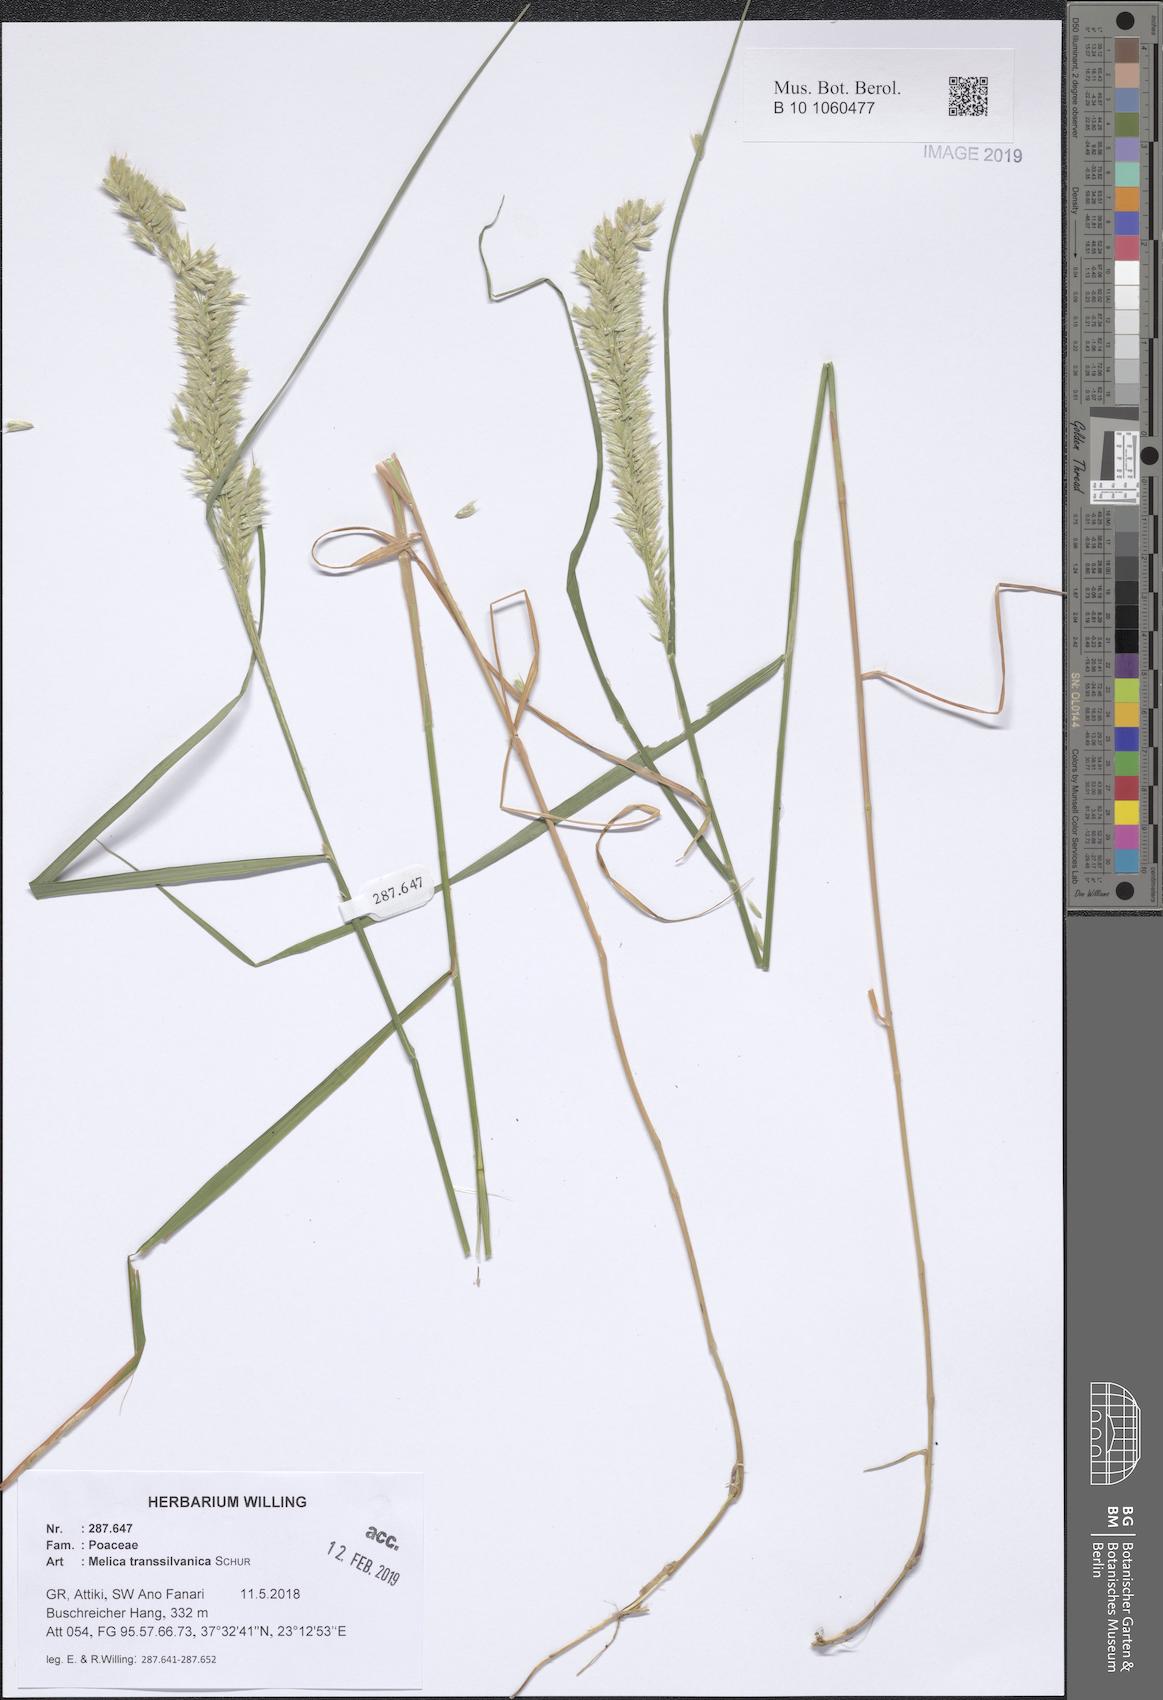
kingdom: Plantae
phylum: Tracheophyta
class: Liliopsida
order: Poales
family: Poaceae
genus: Melica
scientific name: Melica transsilvanica
